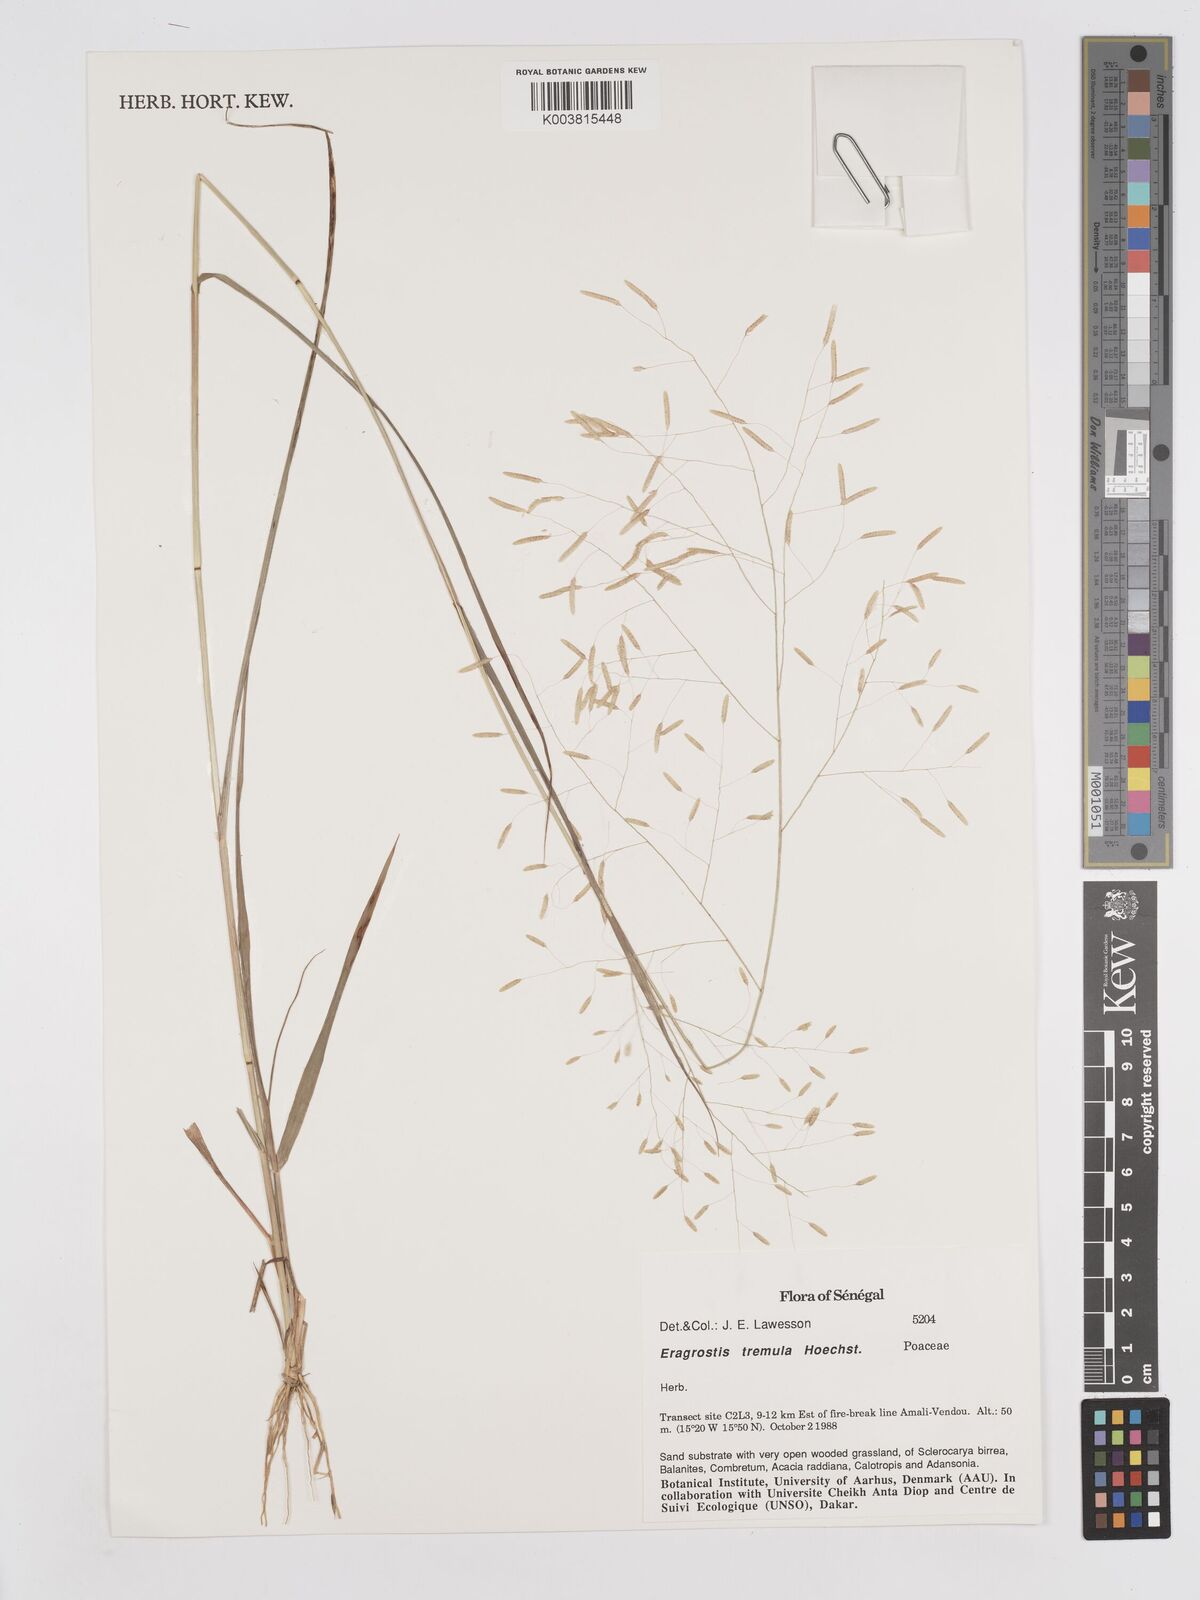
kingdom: Plantae
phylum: Tracheophyta
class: Liliopsida
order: Poales
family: Poaceae
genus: Eragrostis
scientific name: Eragrostis tremula
